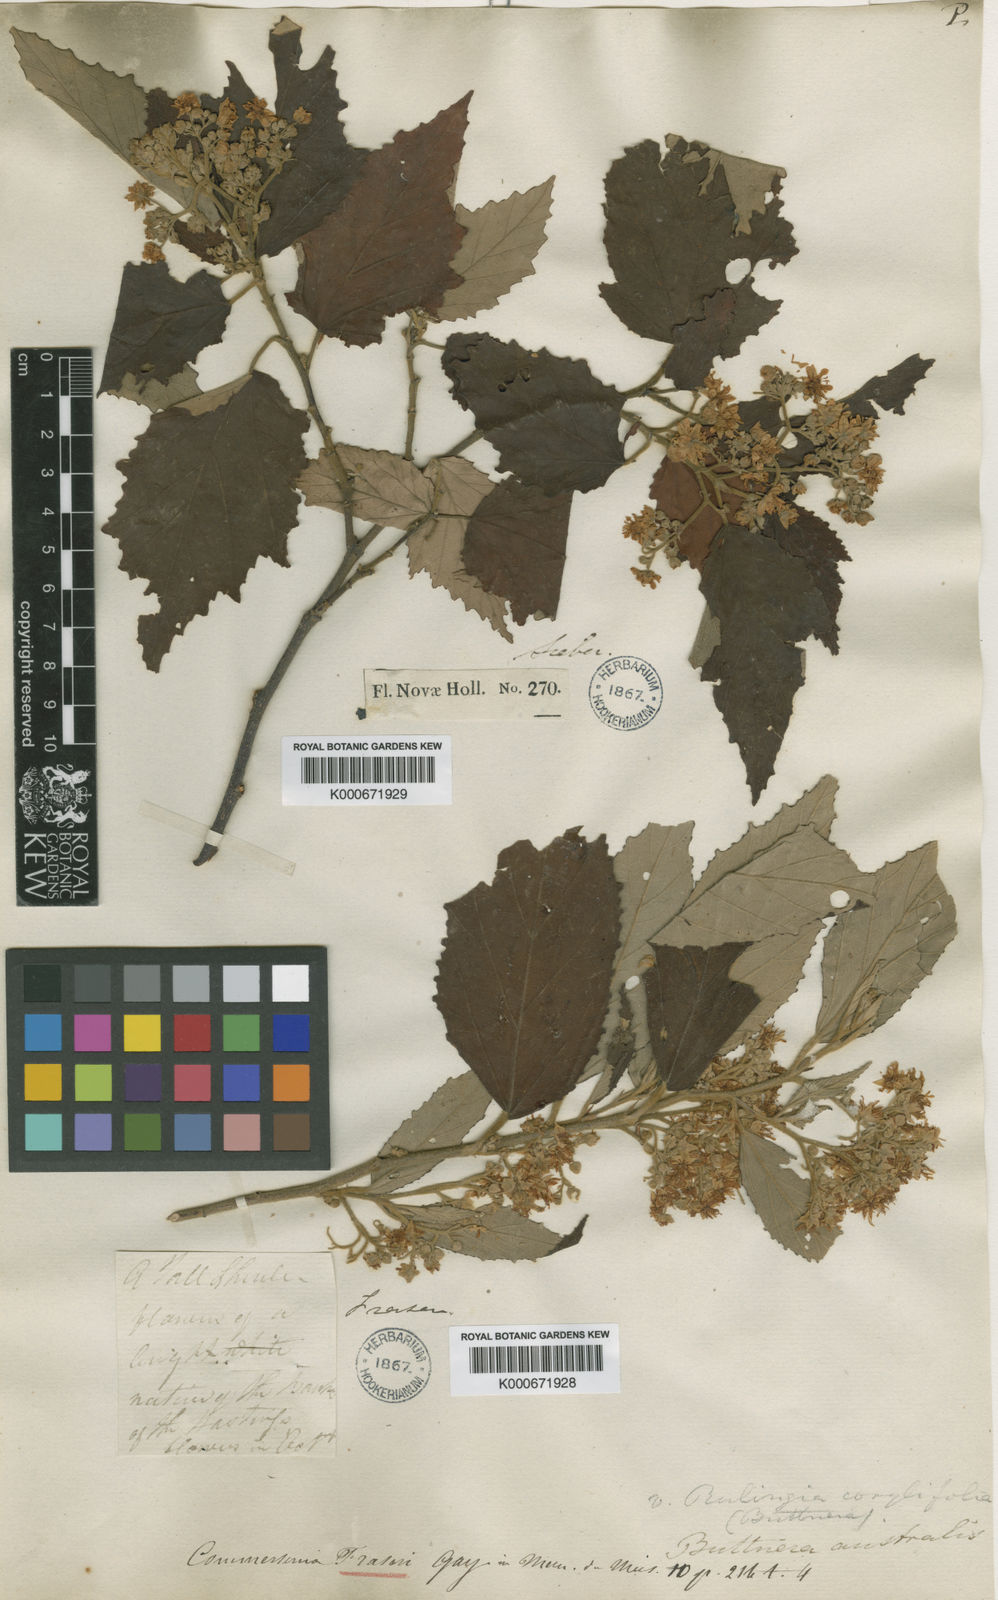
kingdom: Plantae
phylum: Tracheophyta
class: Magnoliopsida
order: Malvales
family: Malvaceae
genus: Androcalva
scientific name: Androcalva fraseri
